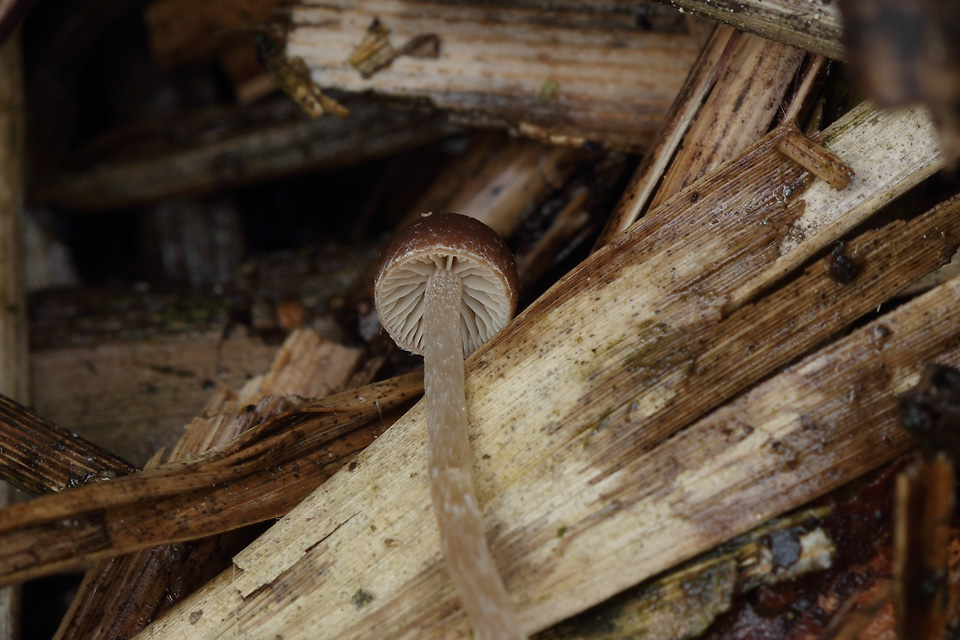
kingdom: Fungi
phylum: Basidiomycota
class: Agaricomycetes
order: Agaricales
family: Psathyrellaceae
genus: Psathyrella
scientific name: Psathyrella rubiginosa
